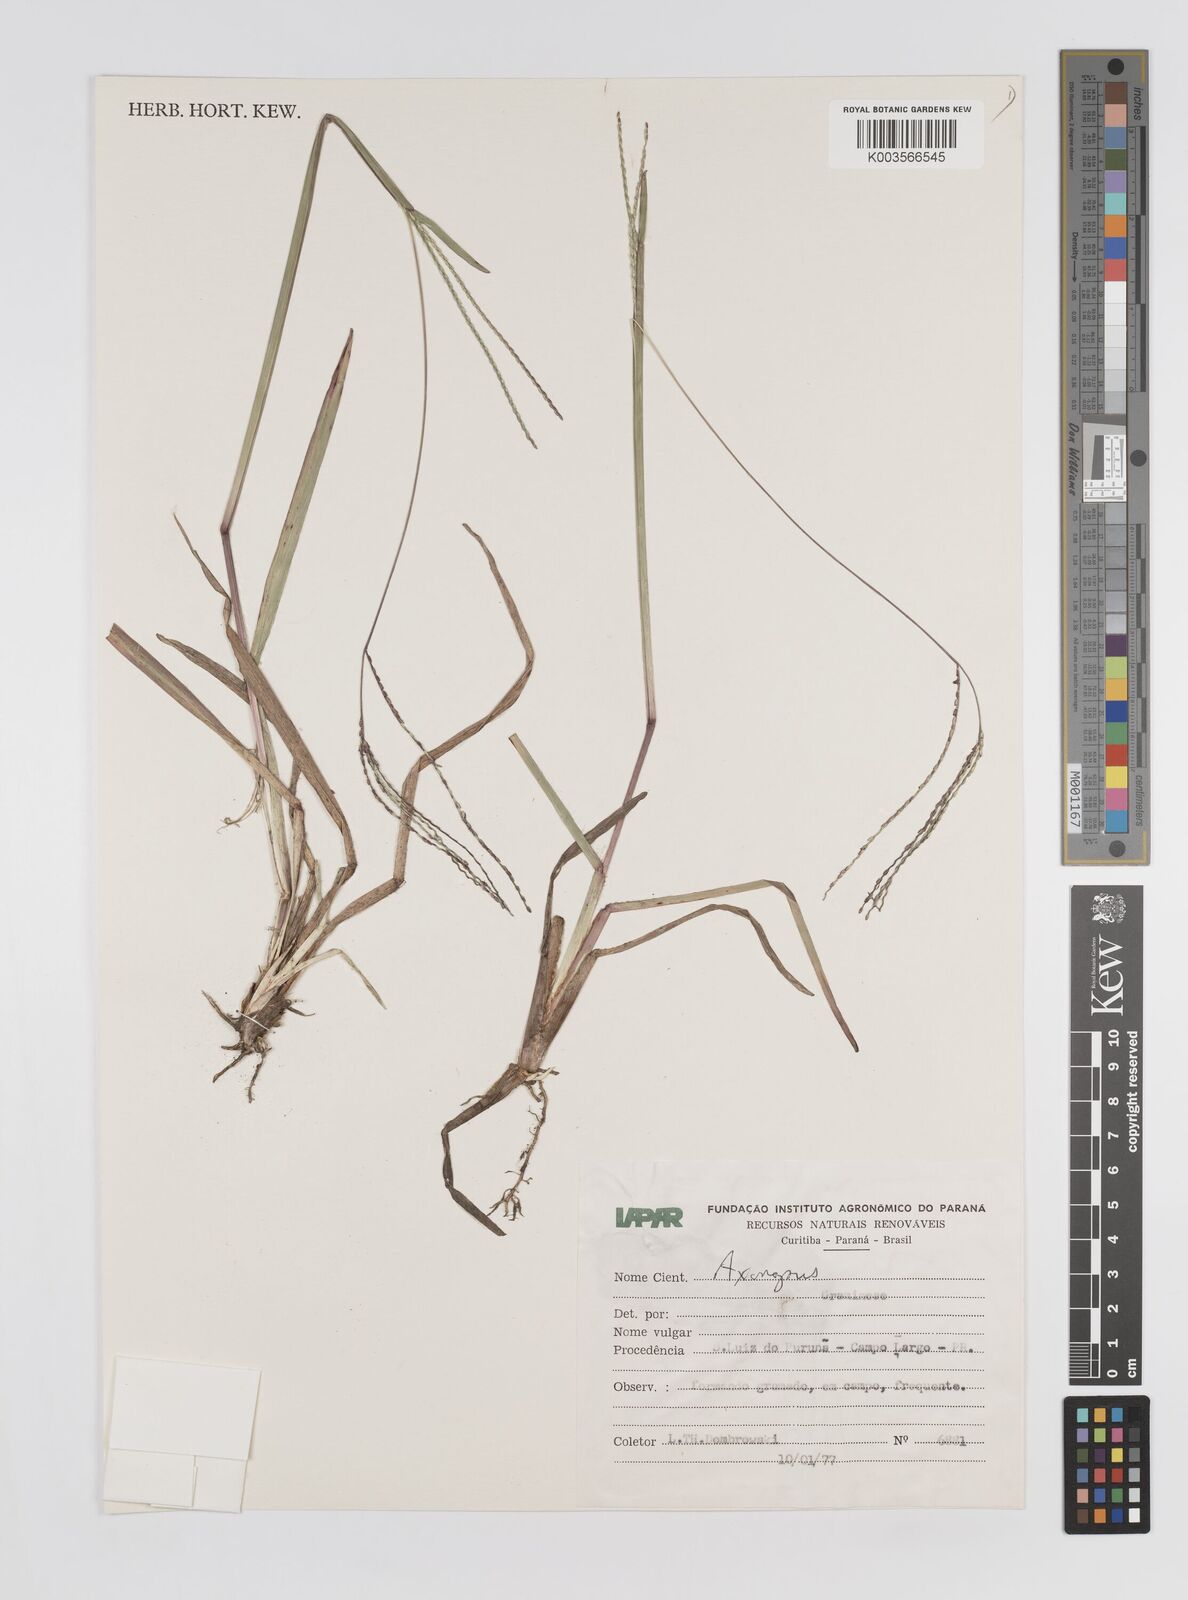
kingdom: Plantae
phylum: Tracheophyta
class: Liliopsida
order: Poales
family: Poaceae
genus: Axonopus
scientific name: Axonopus fissifolius
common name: Common carpetgrass
